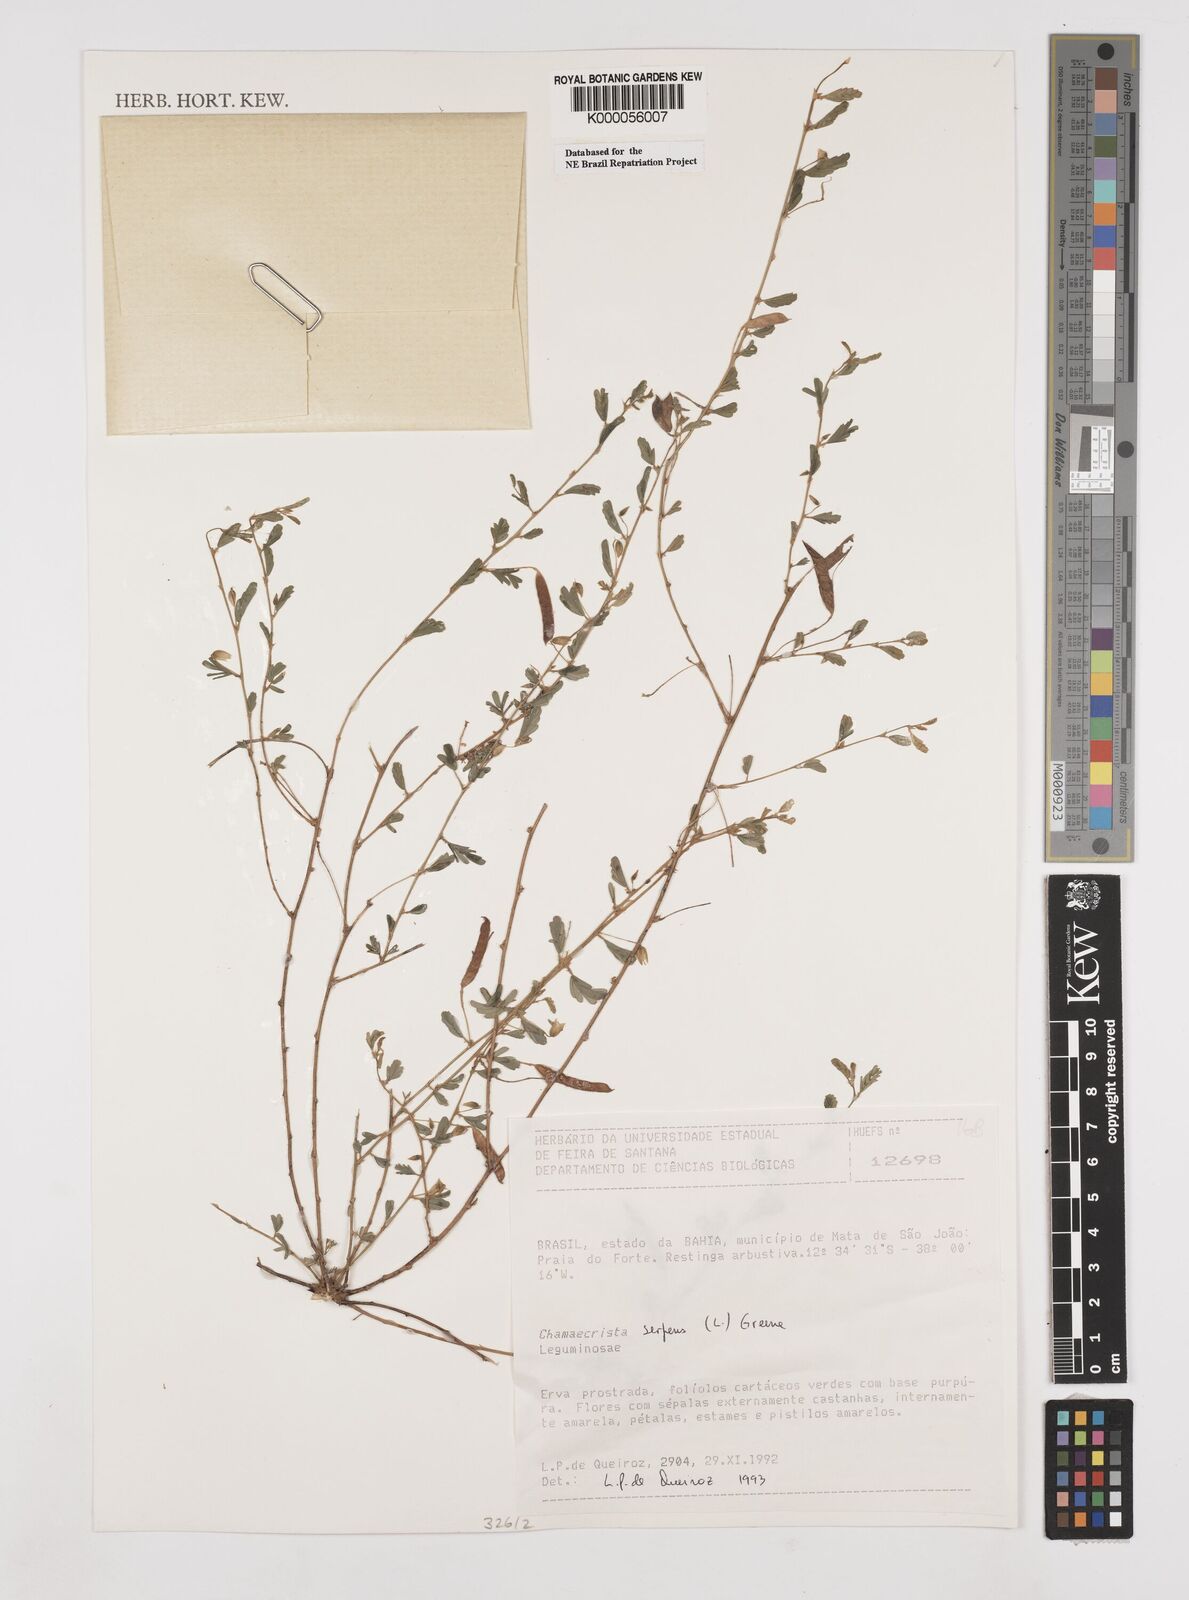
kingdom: Plantae
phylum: Tracheophyta
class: Magnoliopsida
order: Fabales
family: Fabaceae
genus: Chamaecrista
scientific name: Chamaecrista serpens
